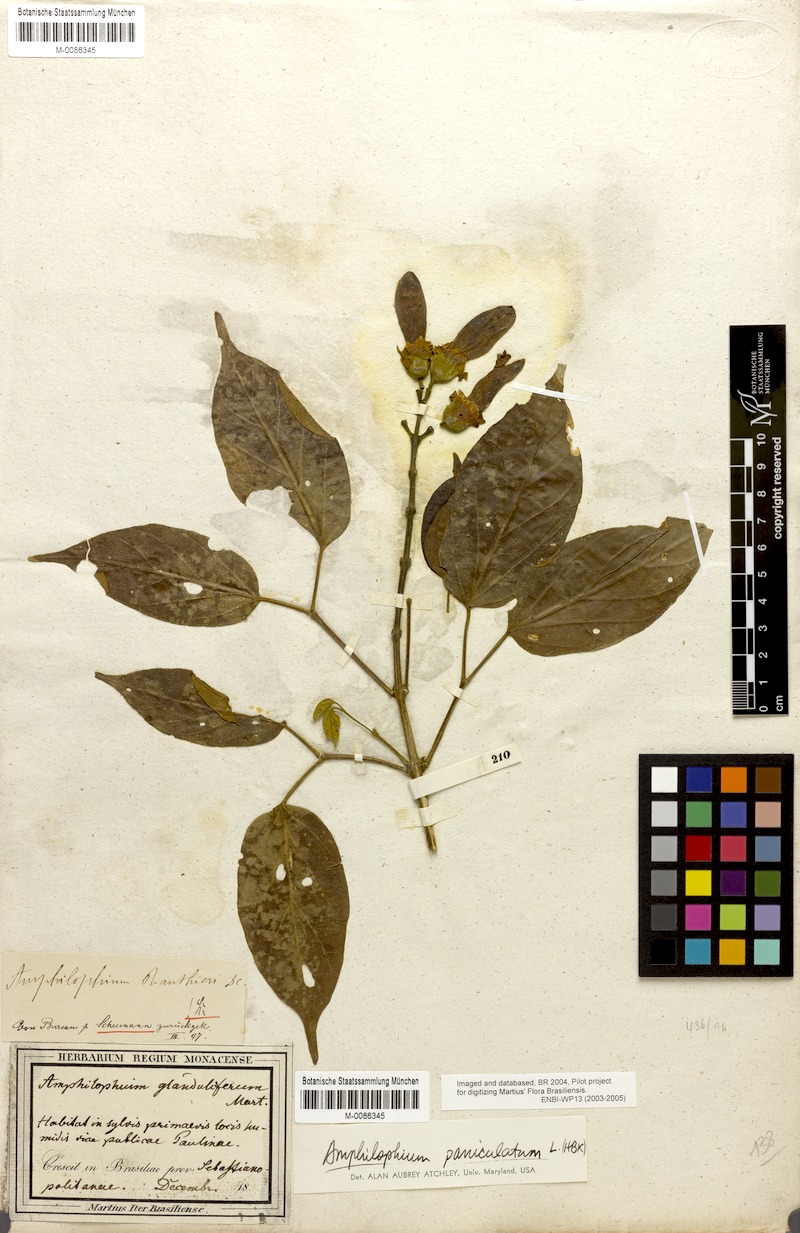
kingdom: Plantae
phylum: Tracheophyta
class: Magnoliopsida
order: Lamiales
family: Bignoniaceae
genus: Amphilophium
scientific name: Amphilophium paniculatum
